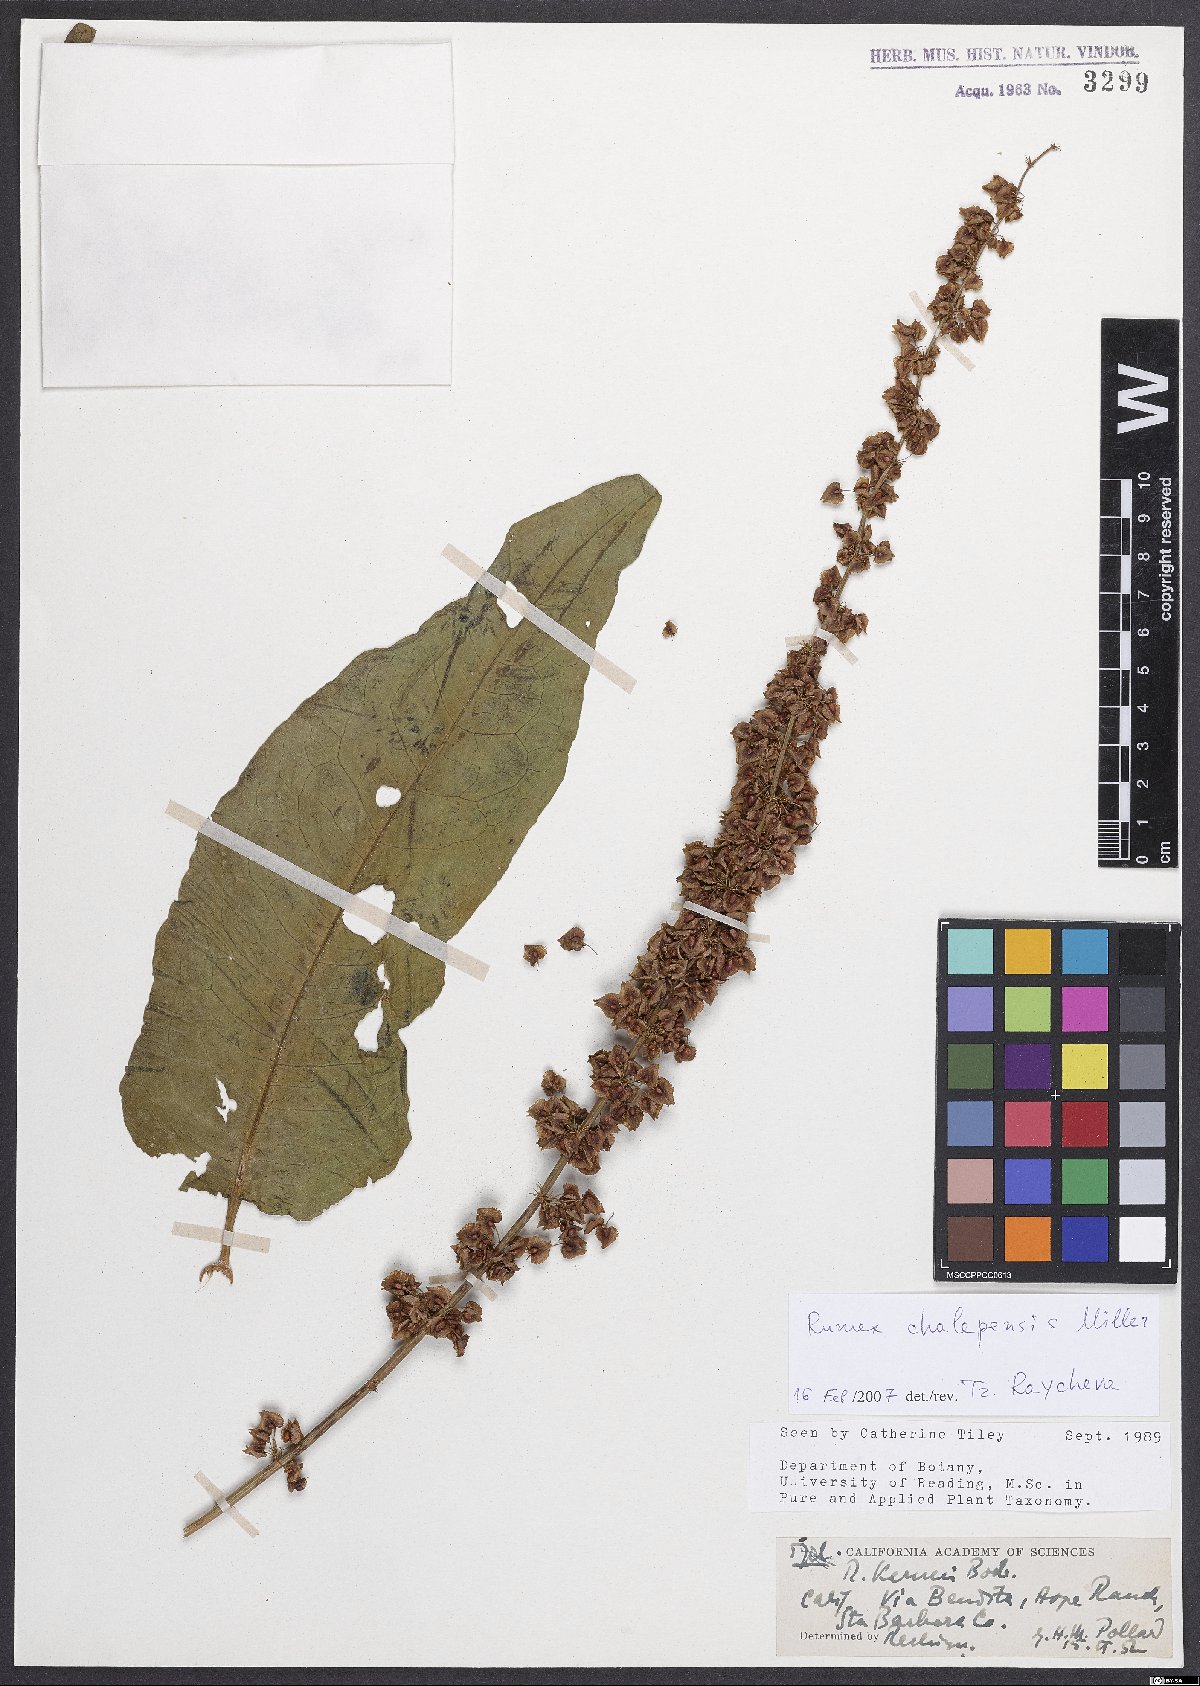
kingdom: Plantae
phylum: Tracheophyta
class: Magnoliopsida
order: Caryophyllales
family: Polygonaceae
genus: Rumex
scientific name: Rumex chalepensis
